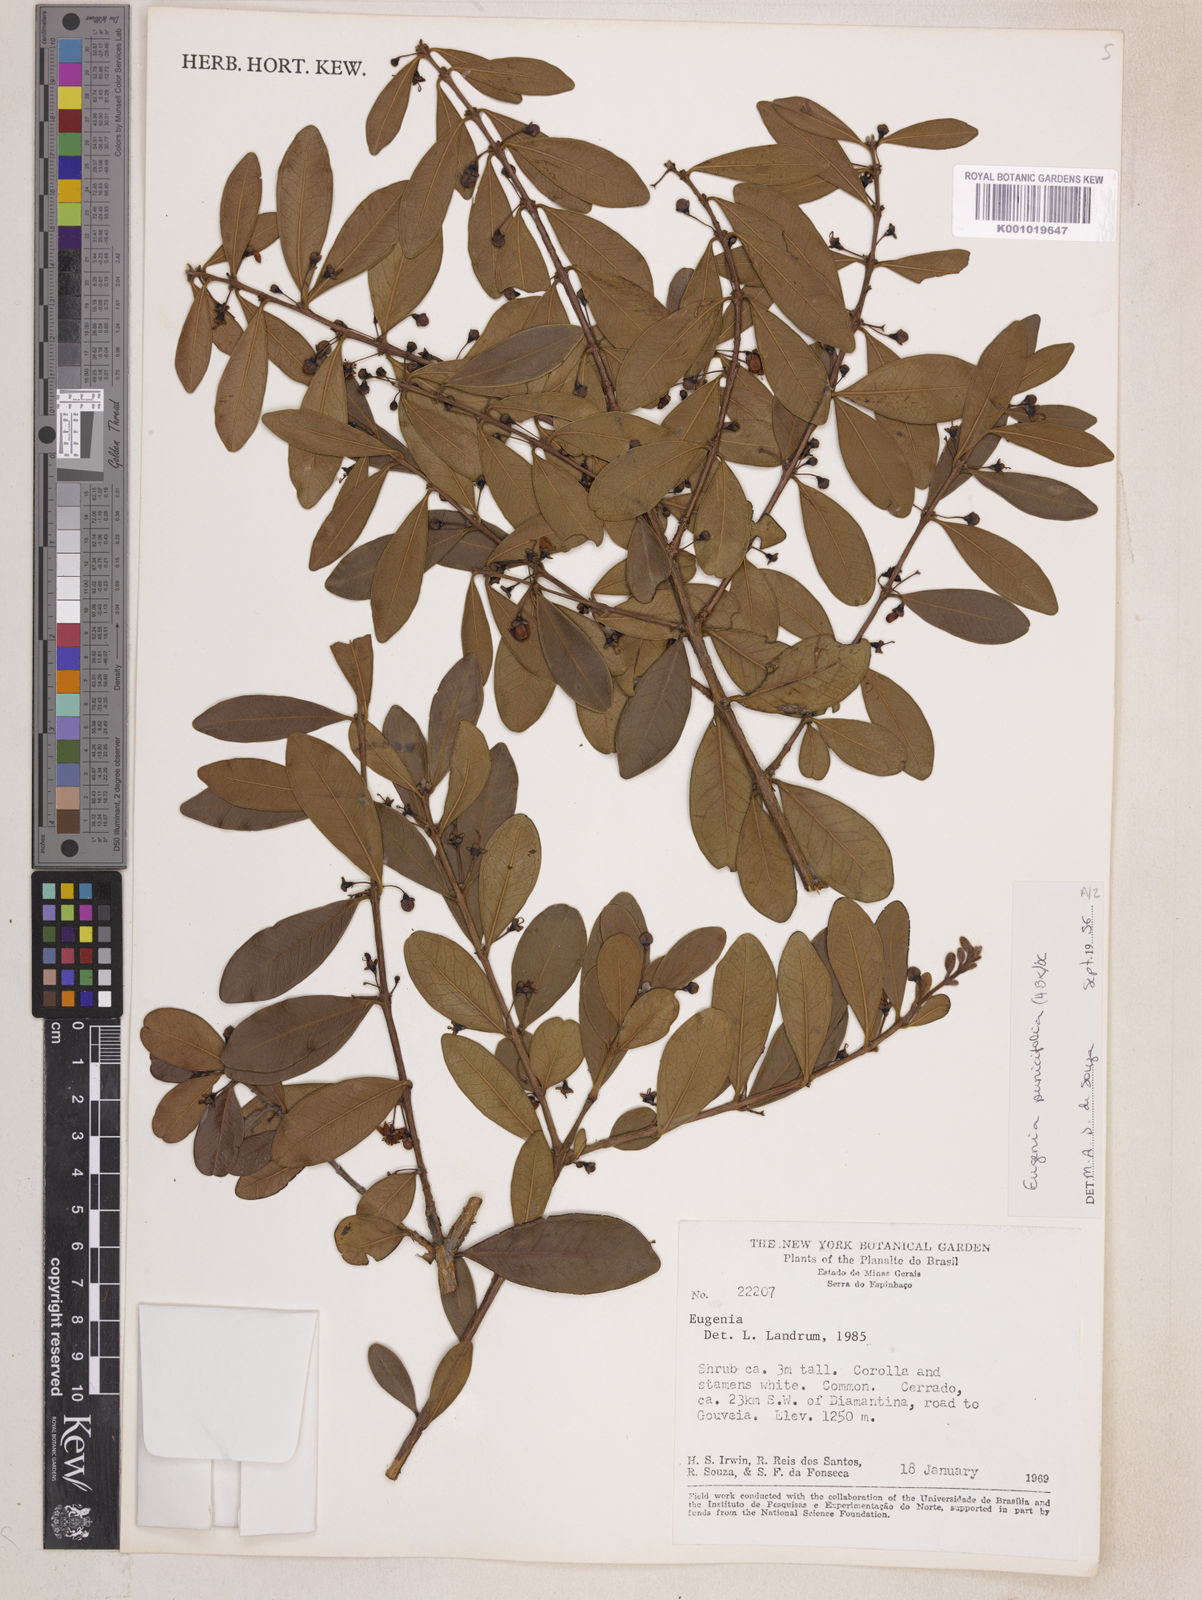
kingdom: Plantae
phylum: Tracheophyta
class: Magnoliopsida
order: Myrtales
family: Myrtaceae
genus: Eugenia
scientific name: Eugenia punicifolia
